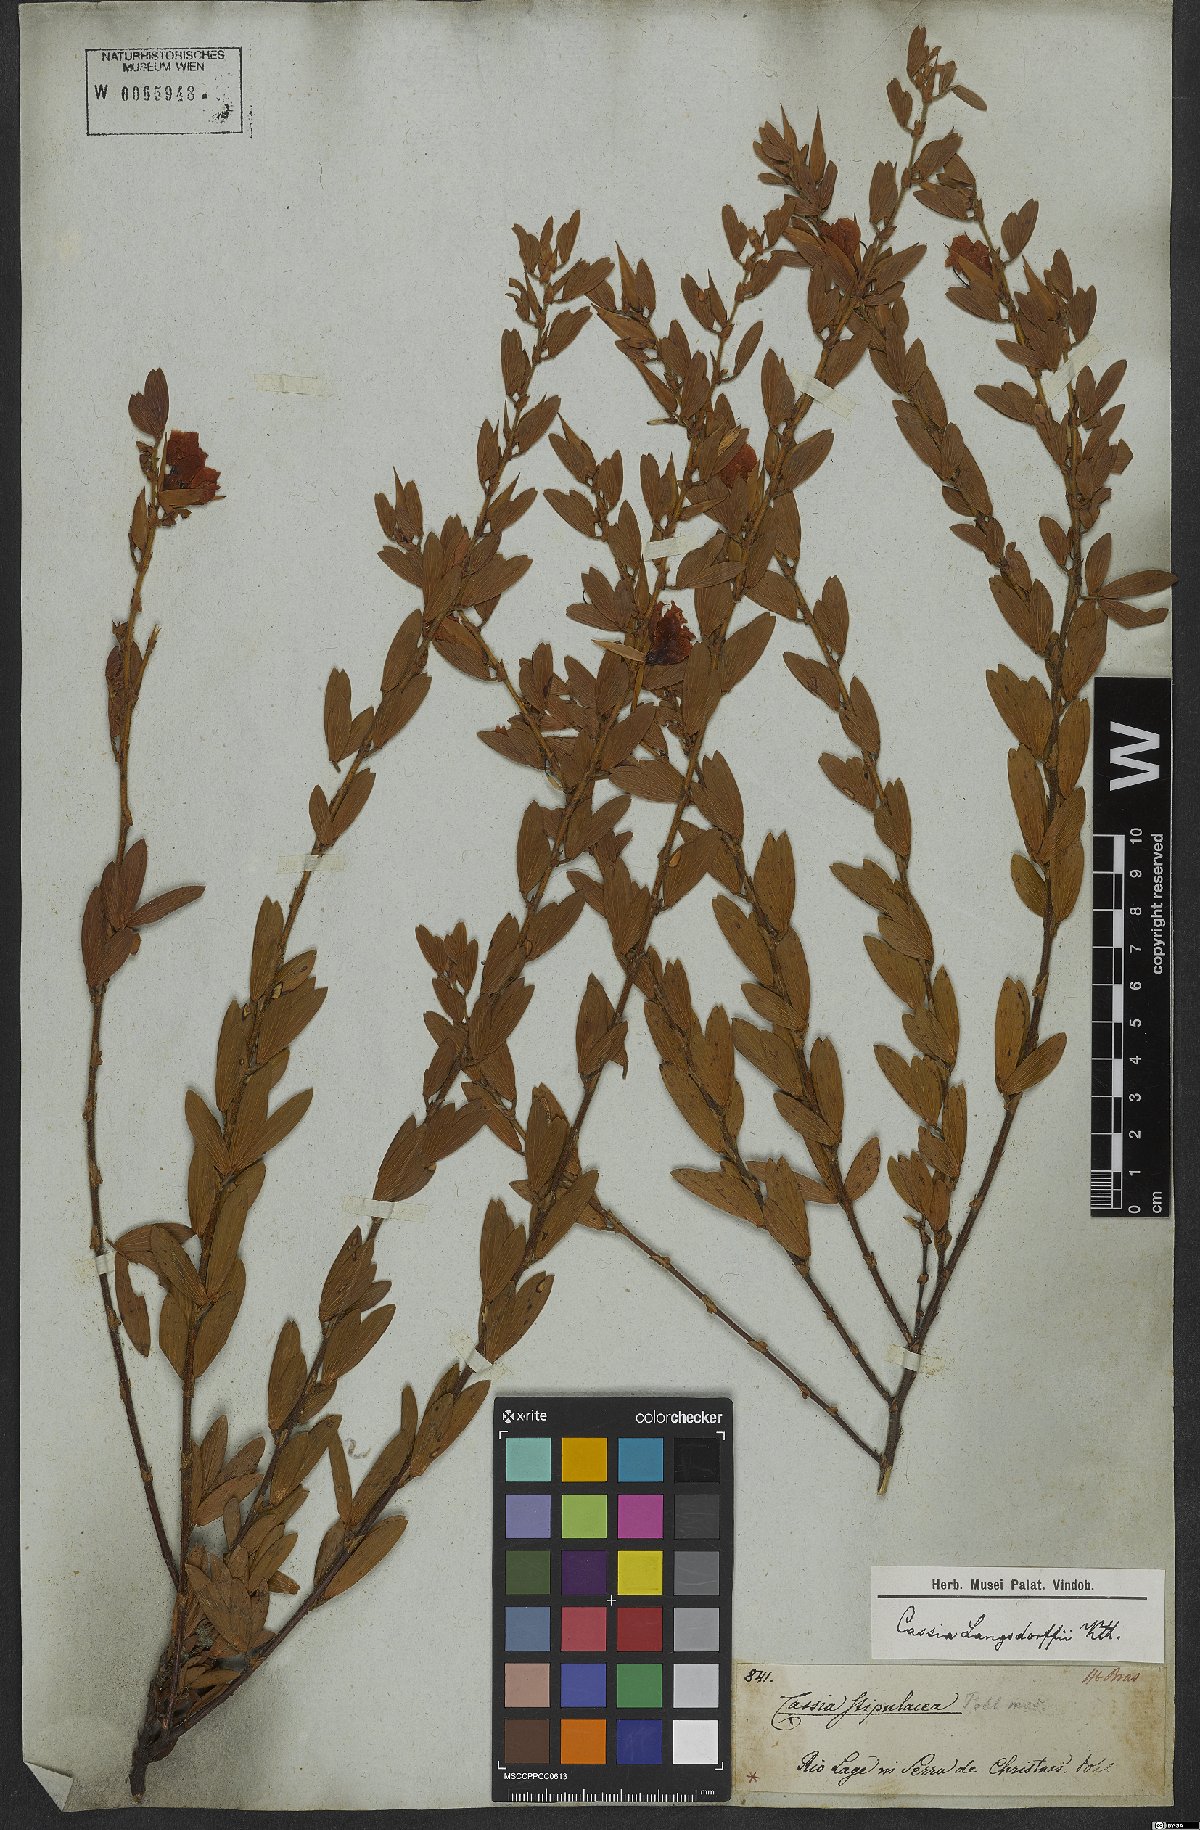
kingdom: Plantae
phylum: Tracheophyta
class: Magnoliopsida
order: Fabales
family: Fabaceae
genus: Chamaecrista
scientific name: Chamaecrista langsdorffii
